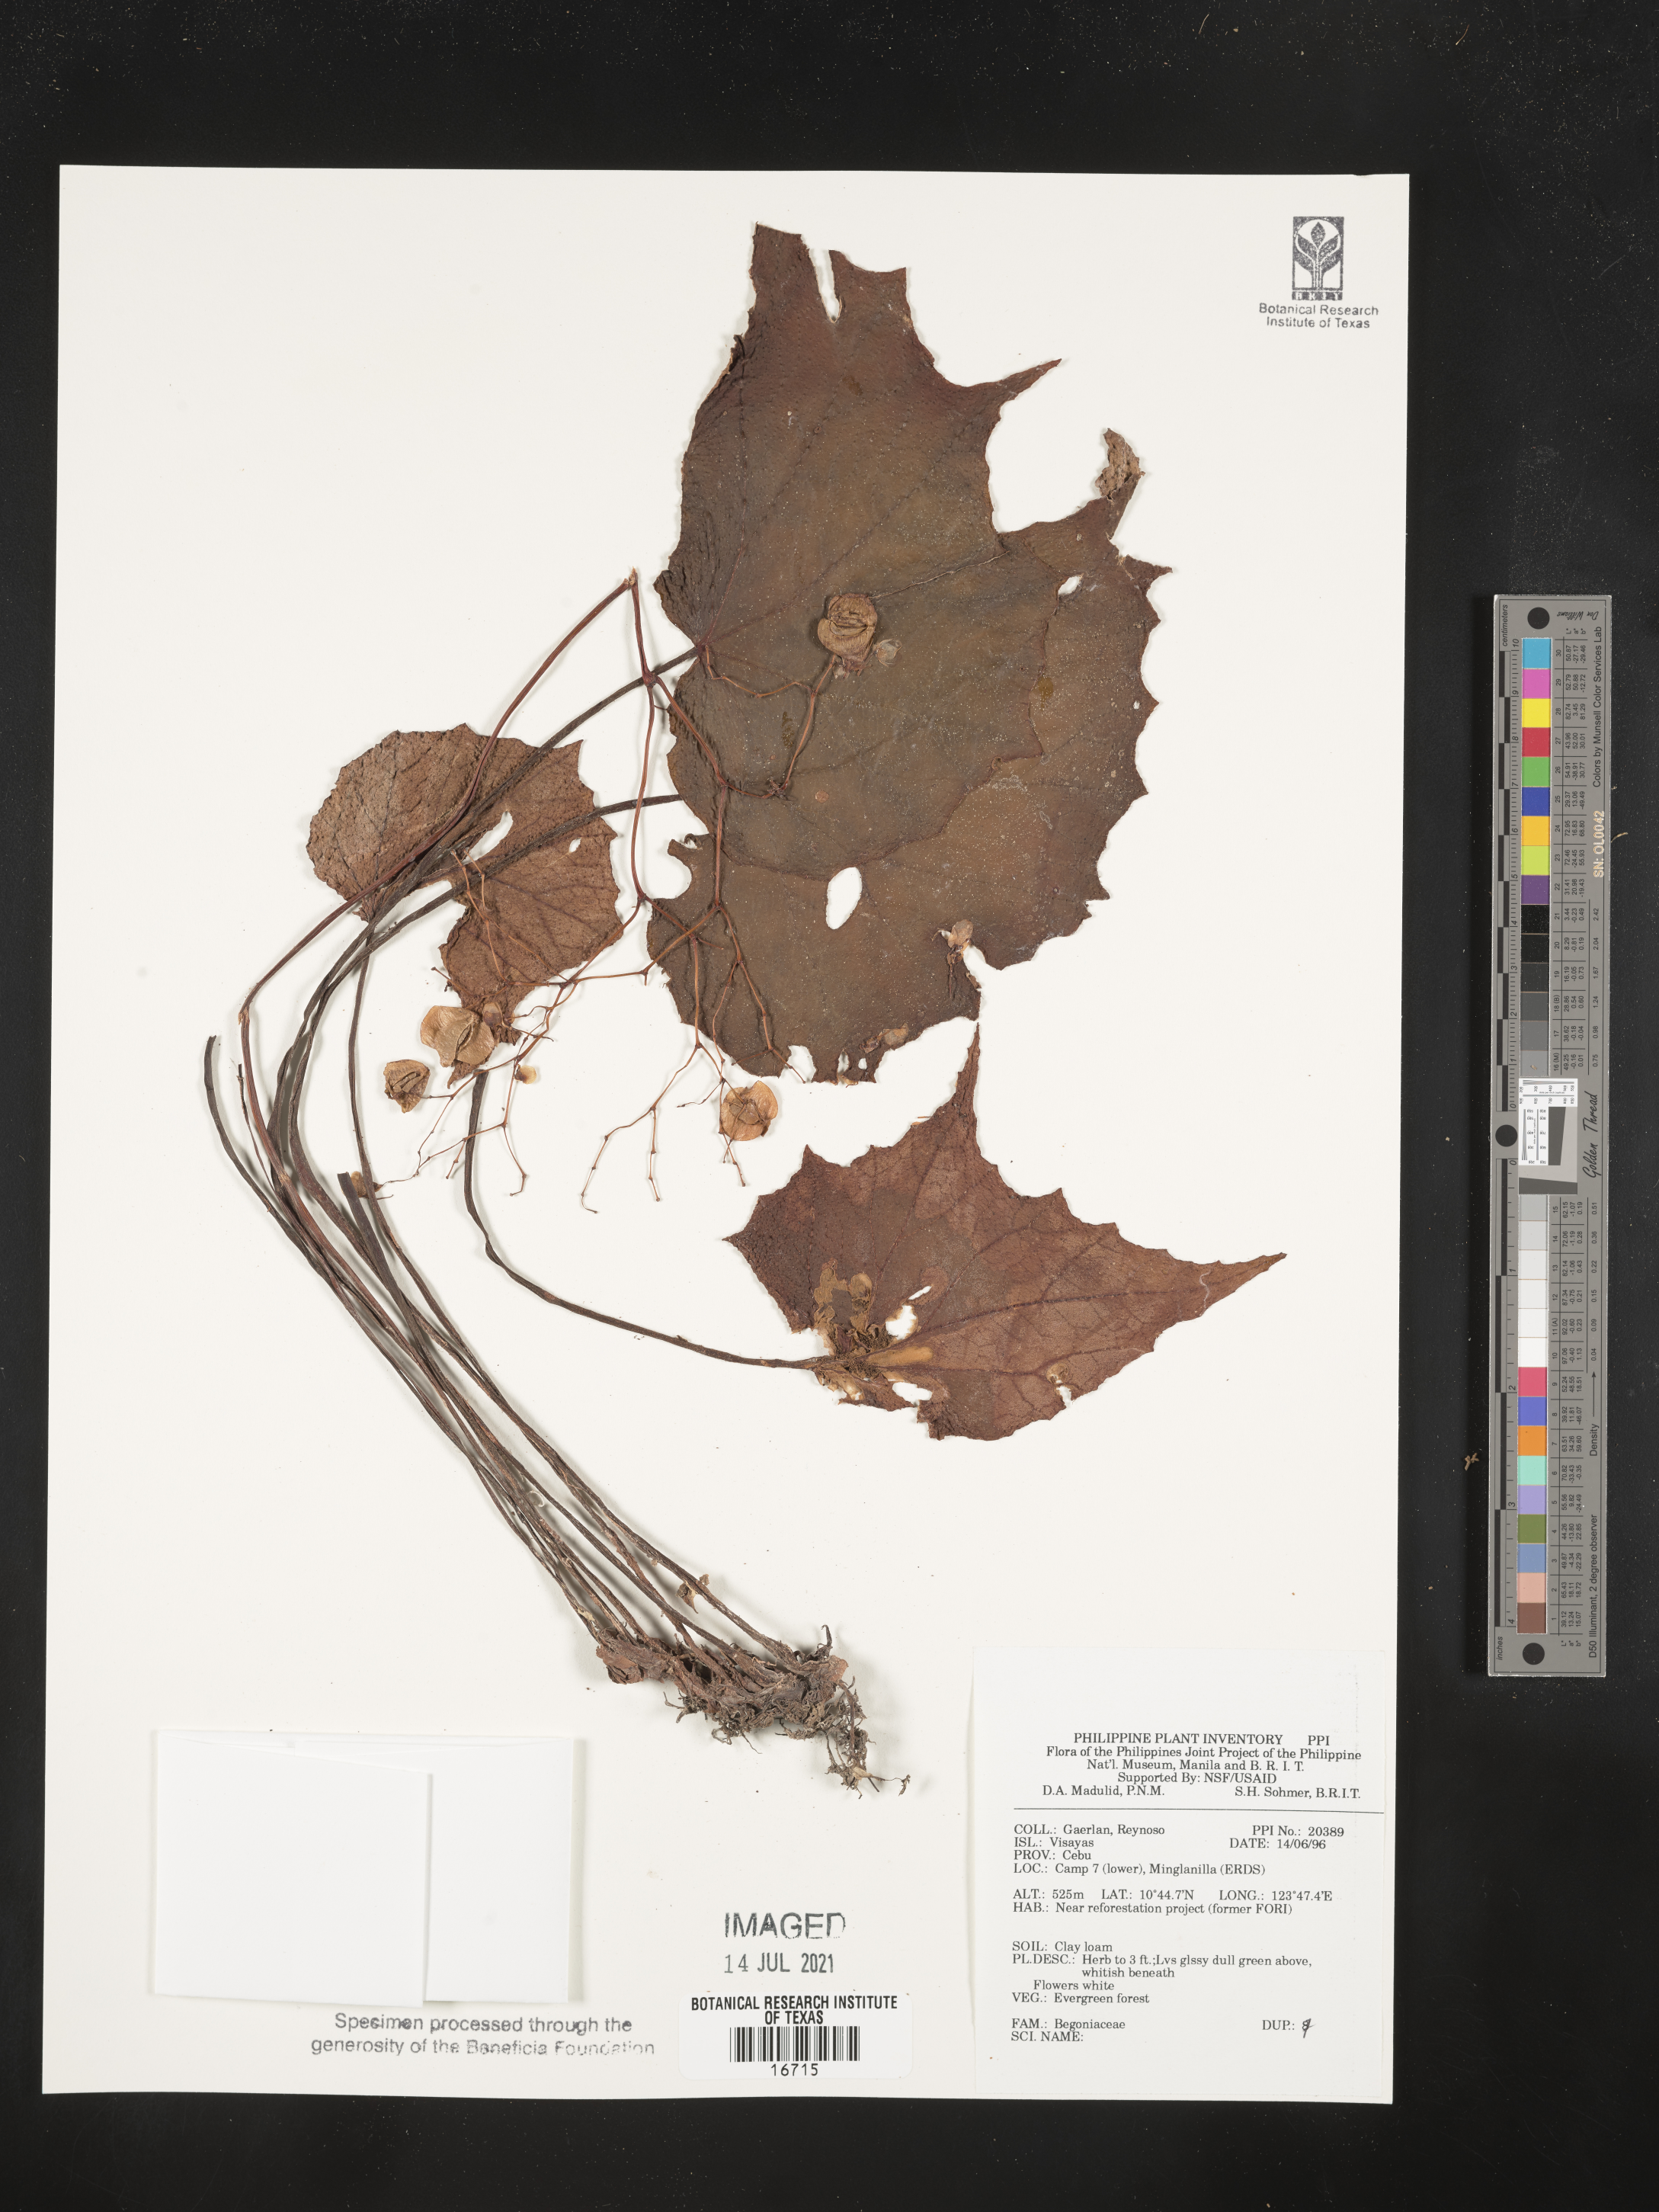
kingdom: Plantae
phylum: Tracheophyta
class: Magnoliopsida
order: Cucurbitales
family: Begoniaceae
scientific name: Begoniaceae
